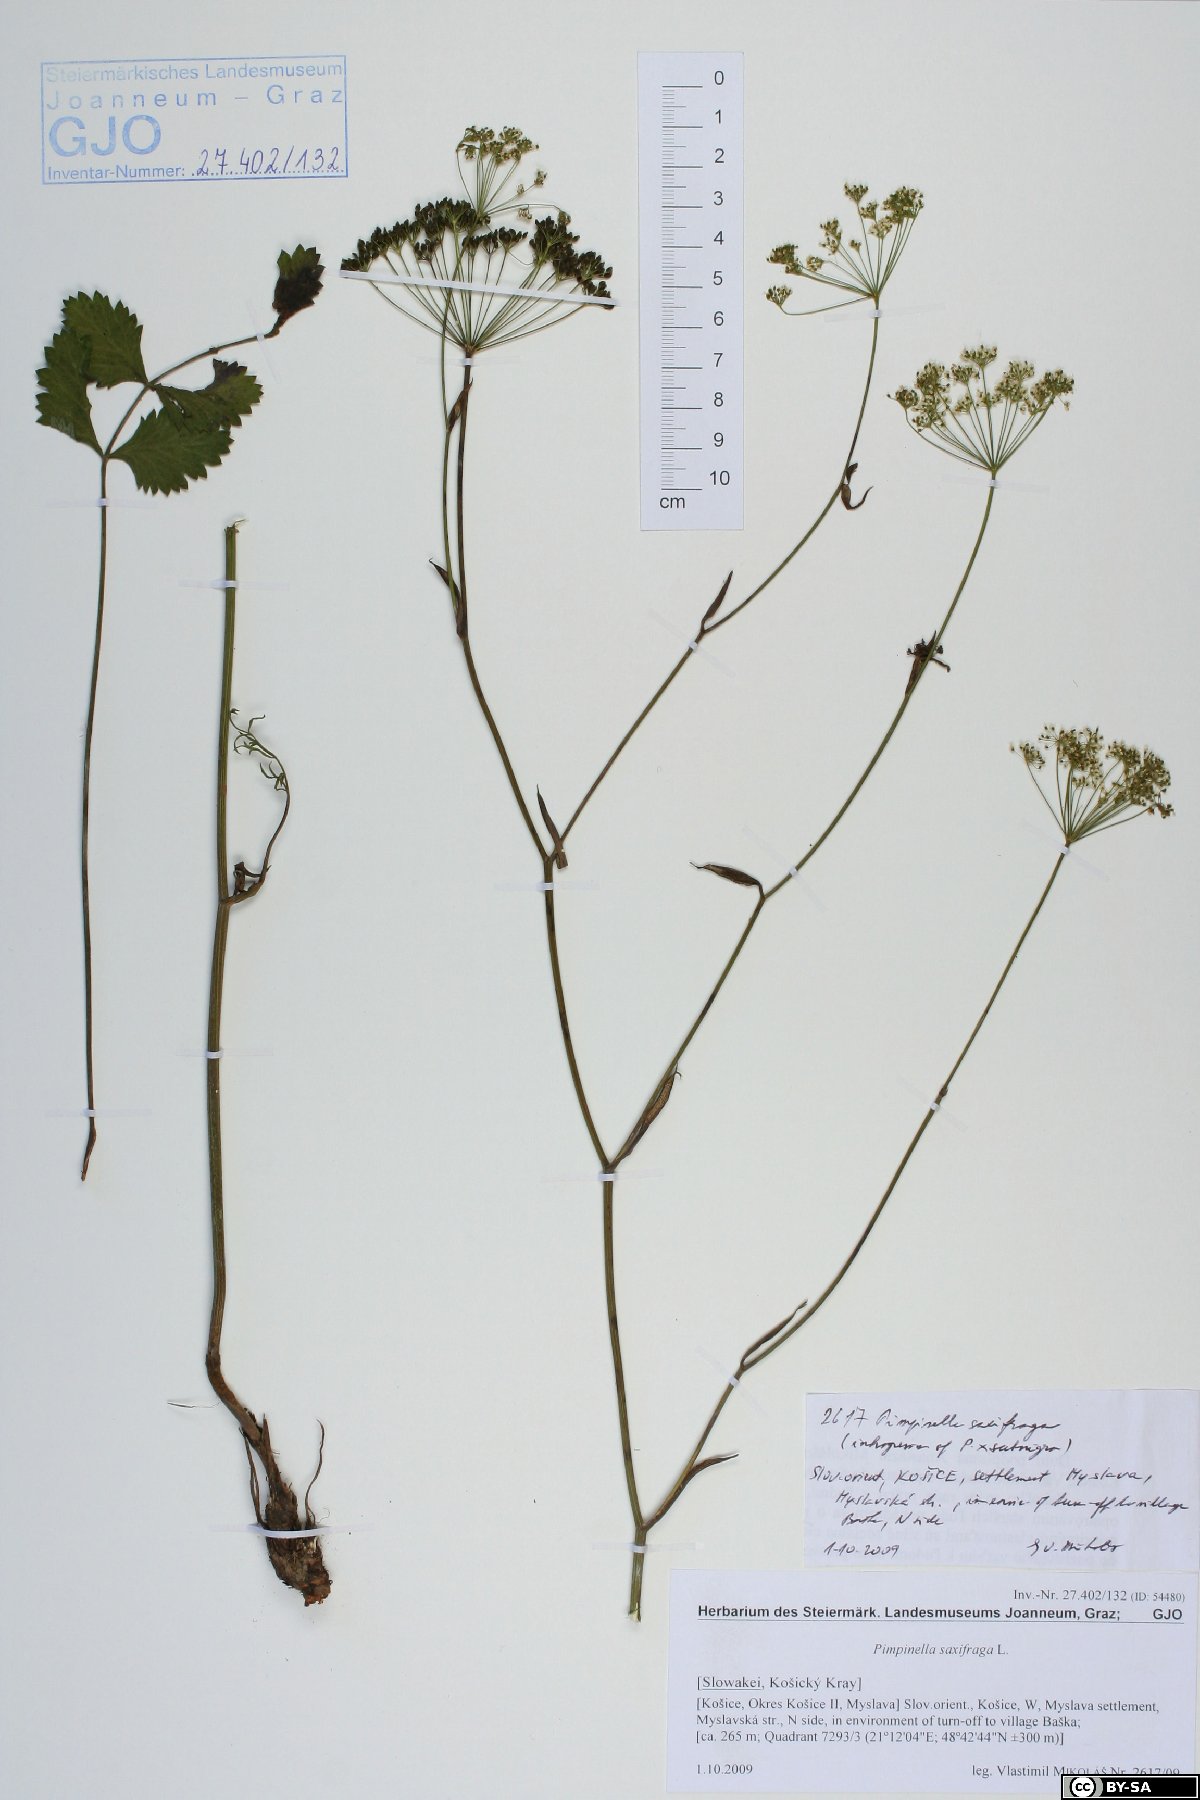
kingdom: Plantae
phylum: Tracheophyta
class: Magnoliopsida
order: Apiales
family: Apiaceae
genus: Pimpinella
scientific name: Pimpinella saxifraga
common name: Burnet-saxifrage
